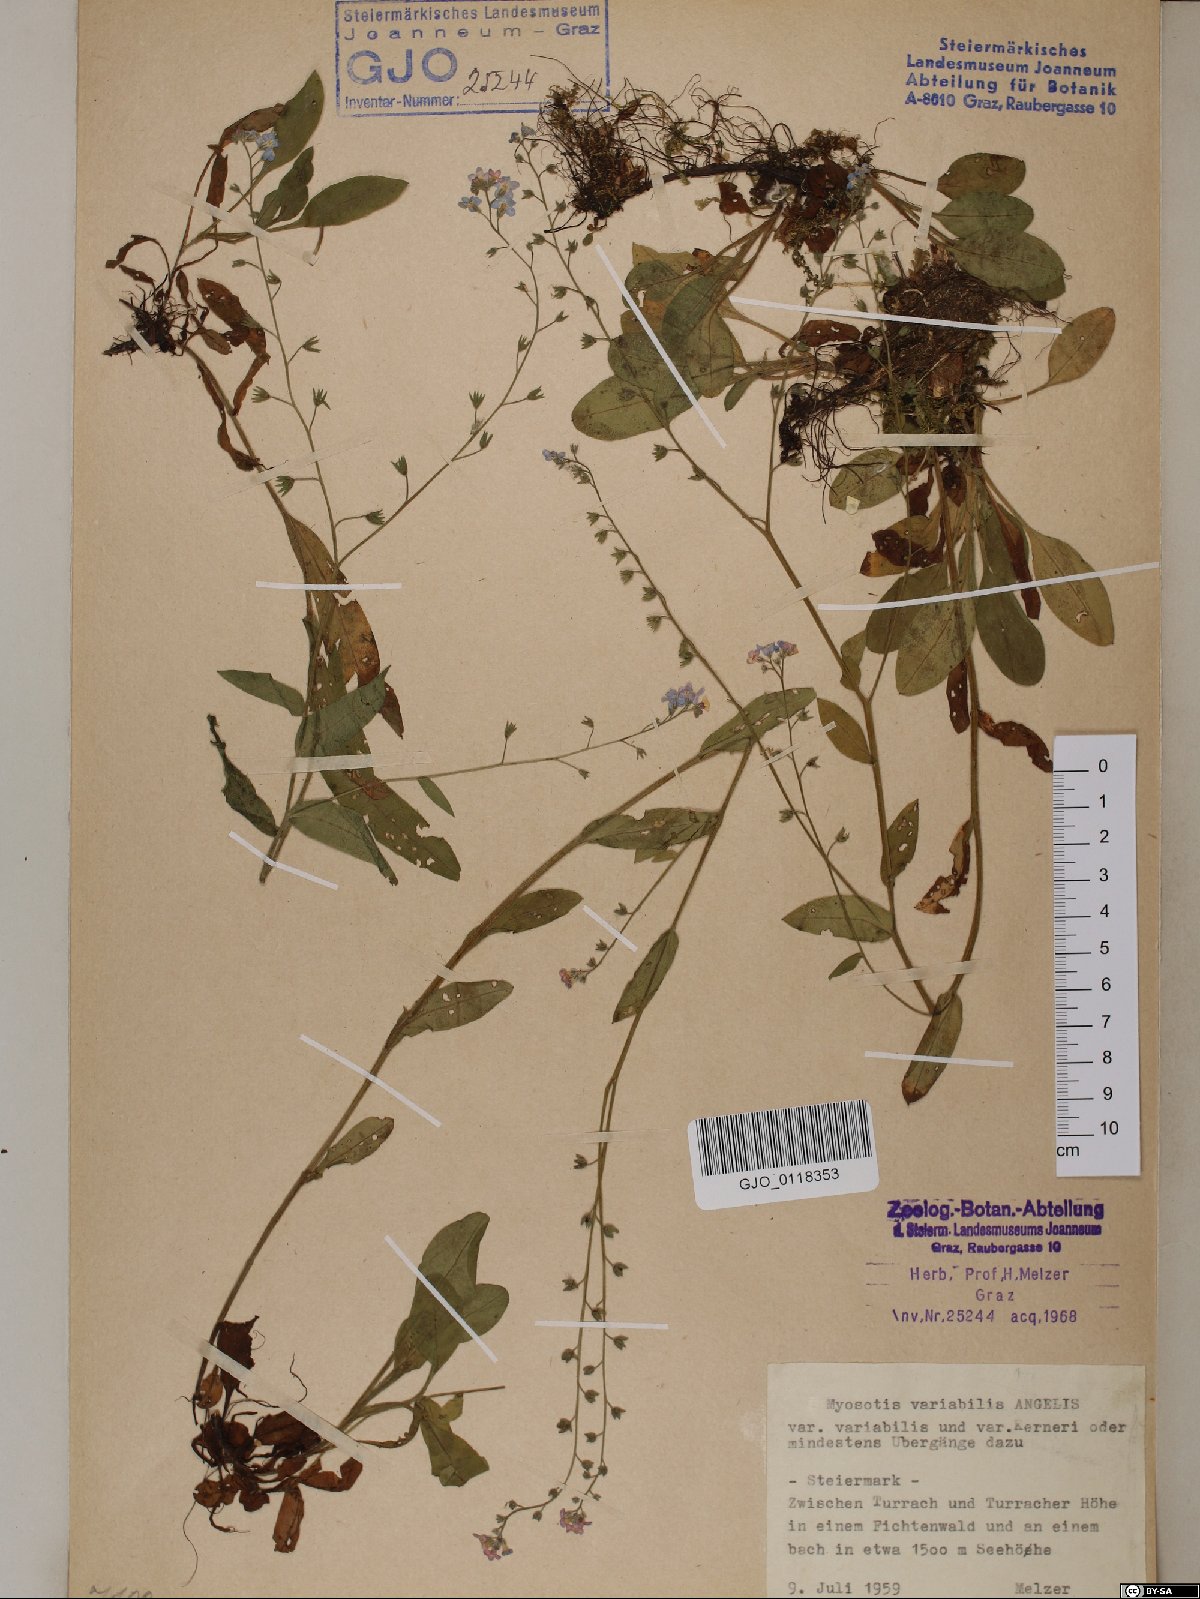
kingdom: Plantae
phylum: Tracheophyta
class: Magnoliopsida
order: Boraginales
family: Boraginaceae
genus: Myosotis
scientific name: Myosotis decumbens
